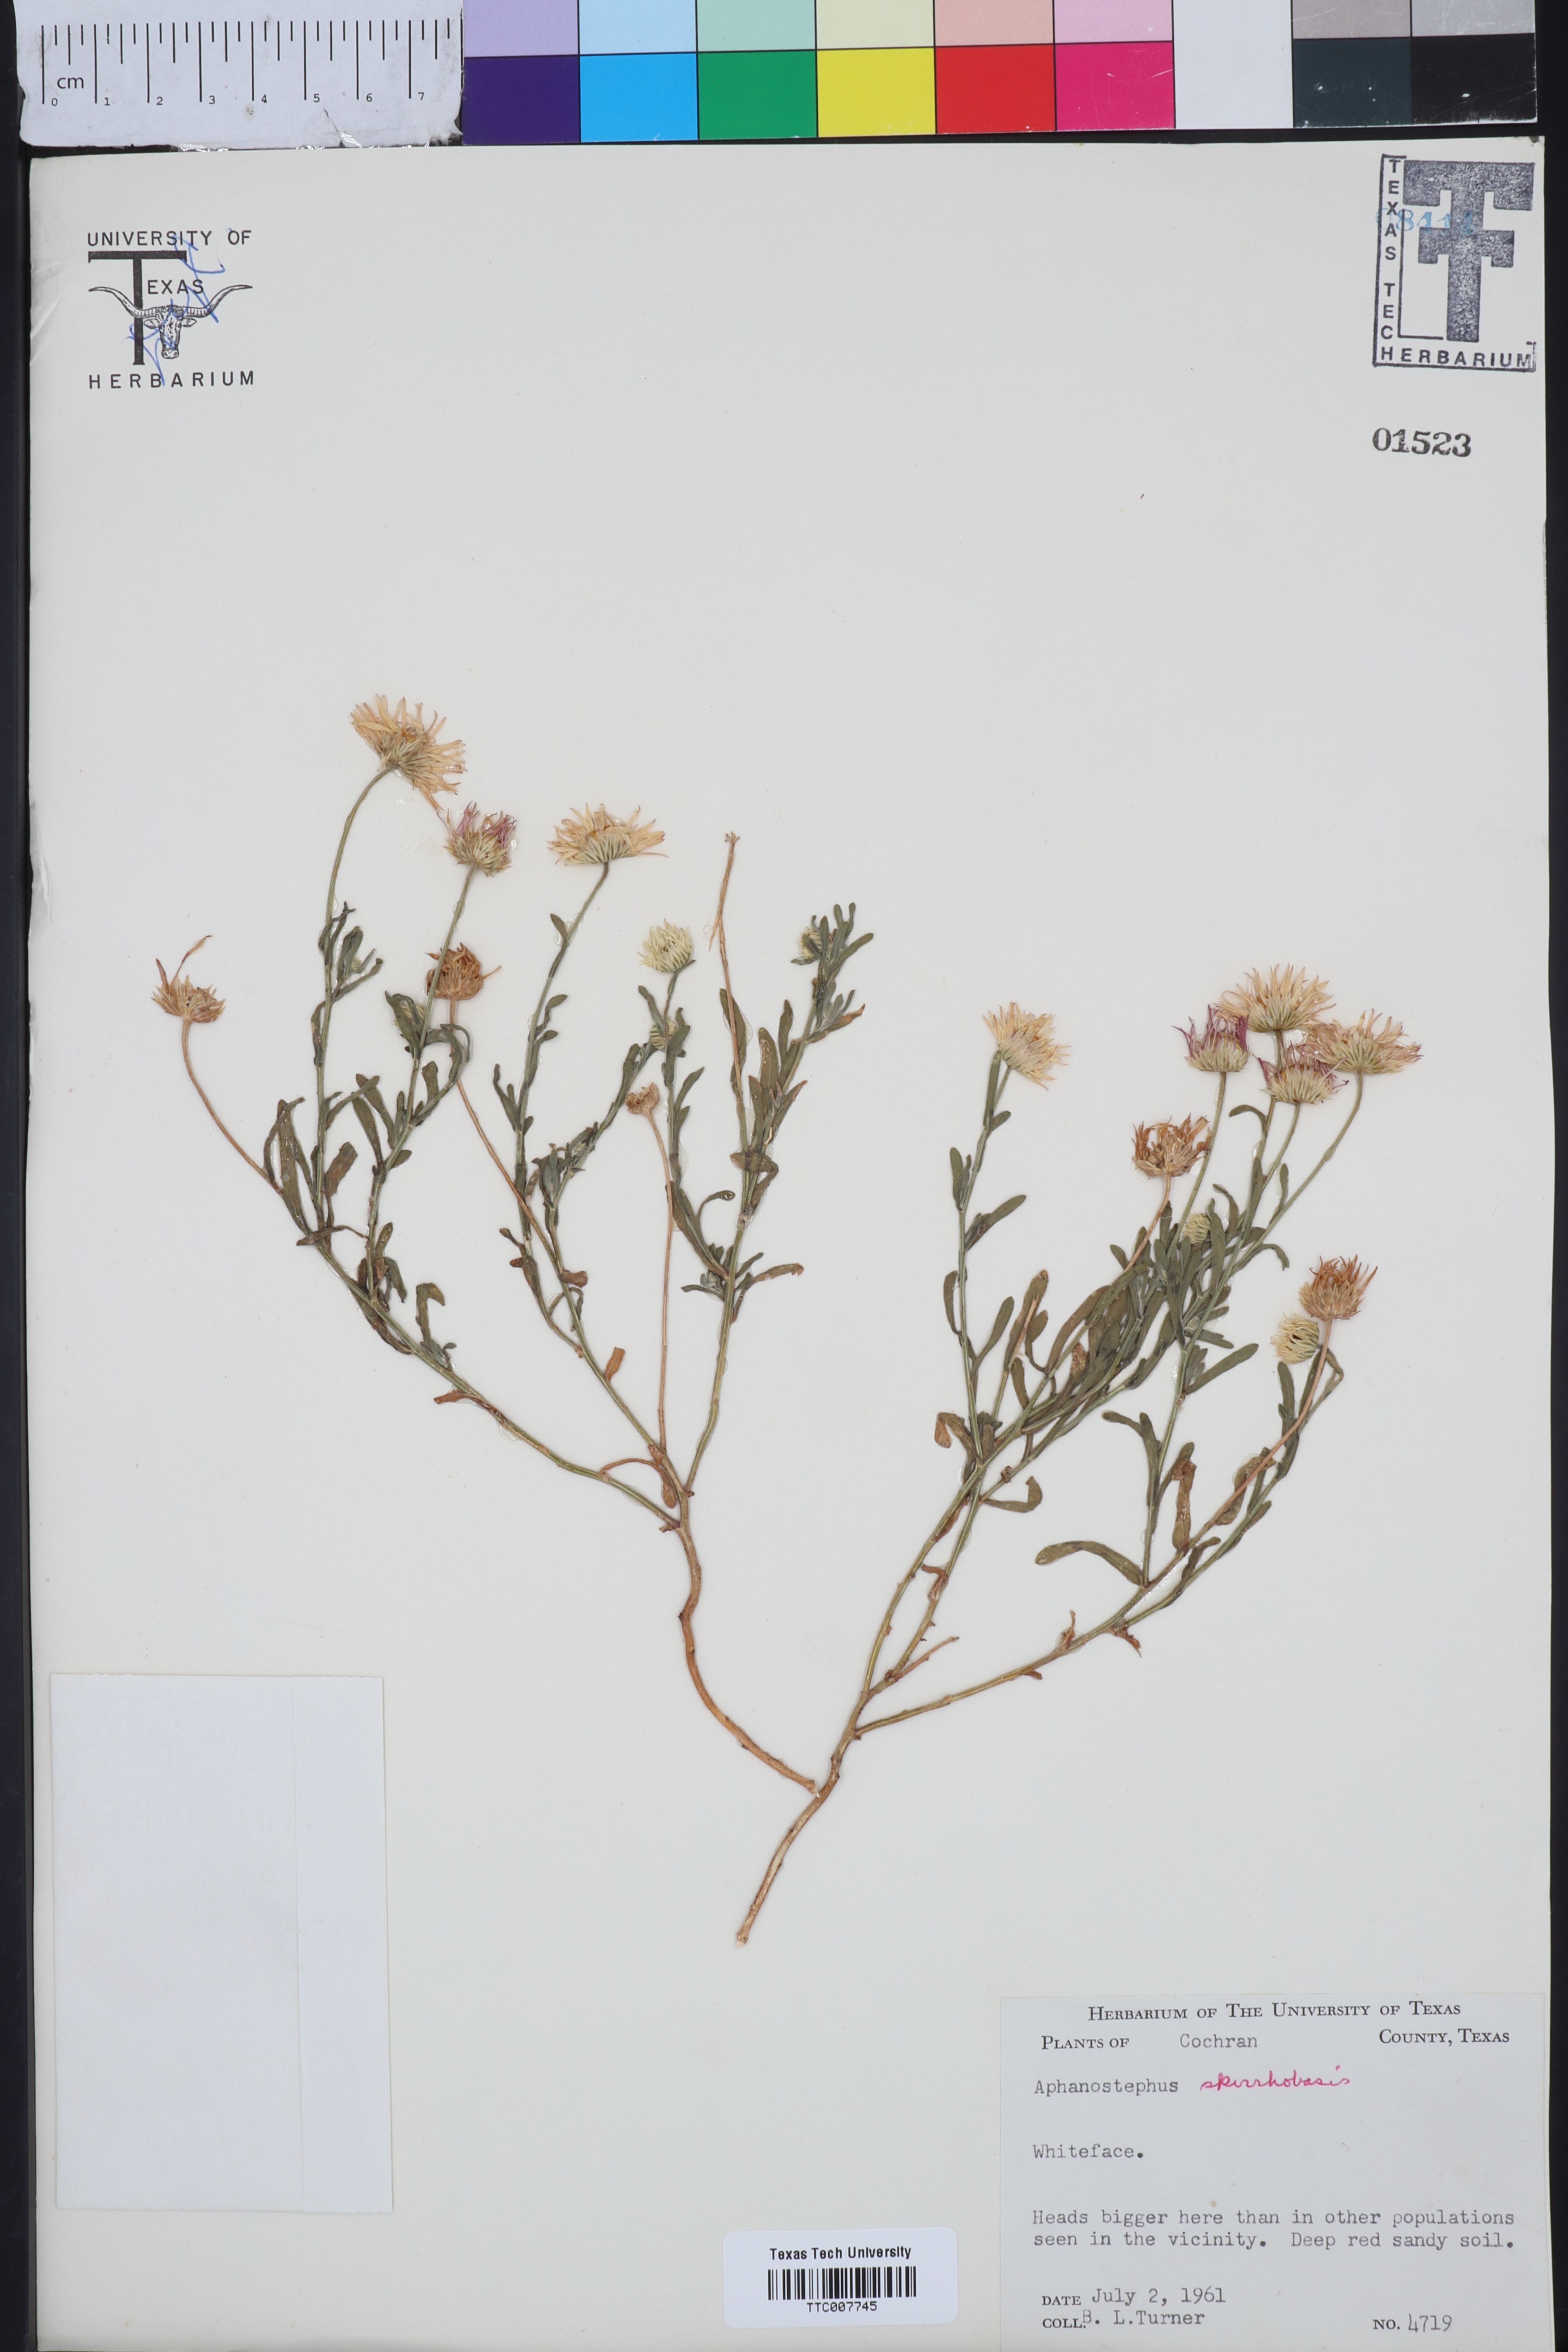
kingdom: Plantae
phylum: Tracheophyta
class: Magnoliopsida
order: Asterales
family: Asteraceae
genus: Aphanostephus
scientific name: Aphanostephus skirrhobasis
